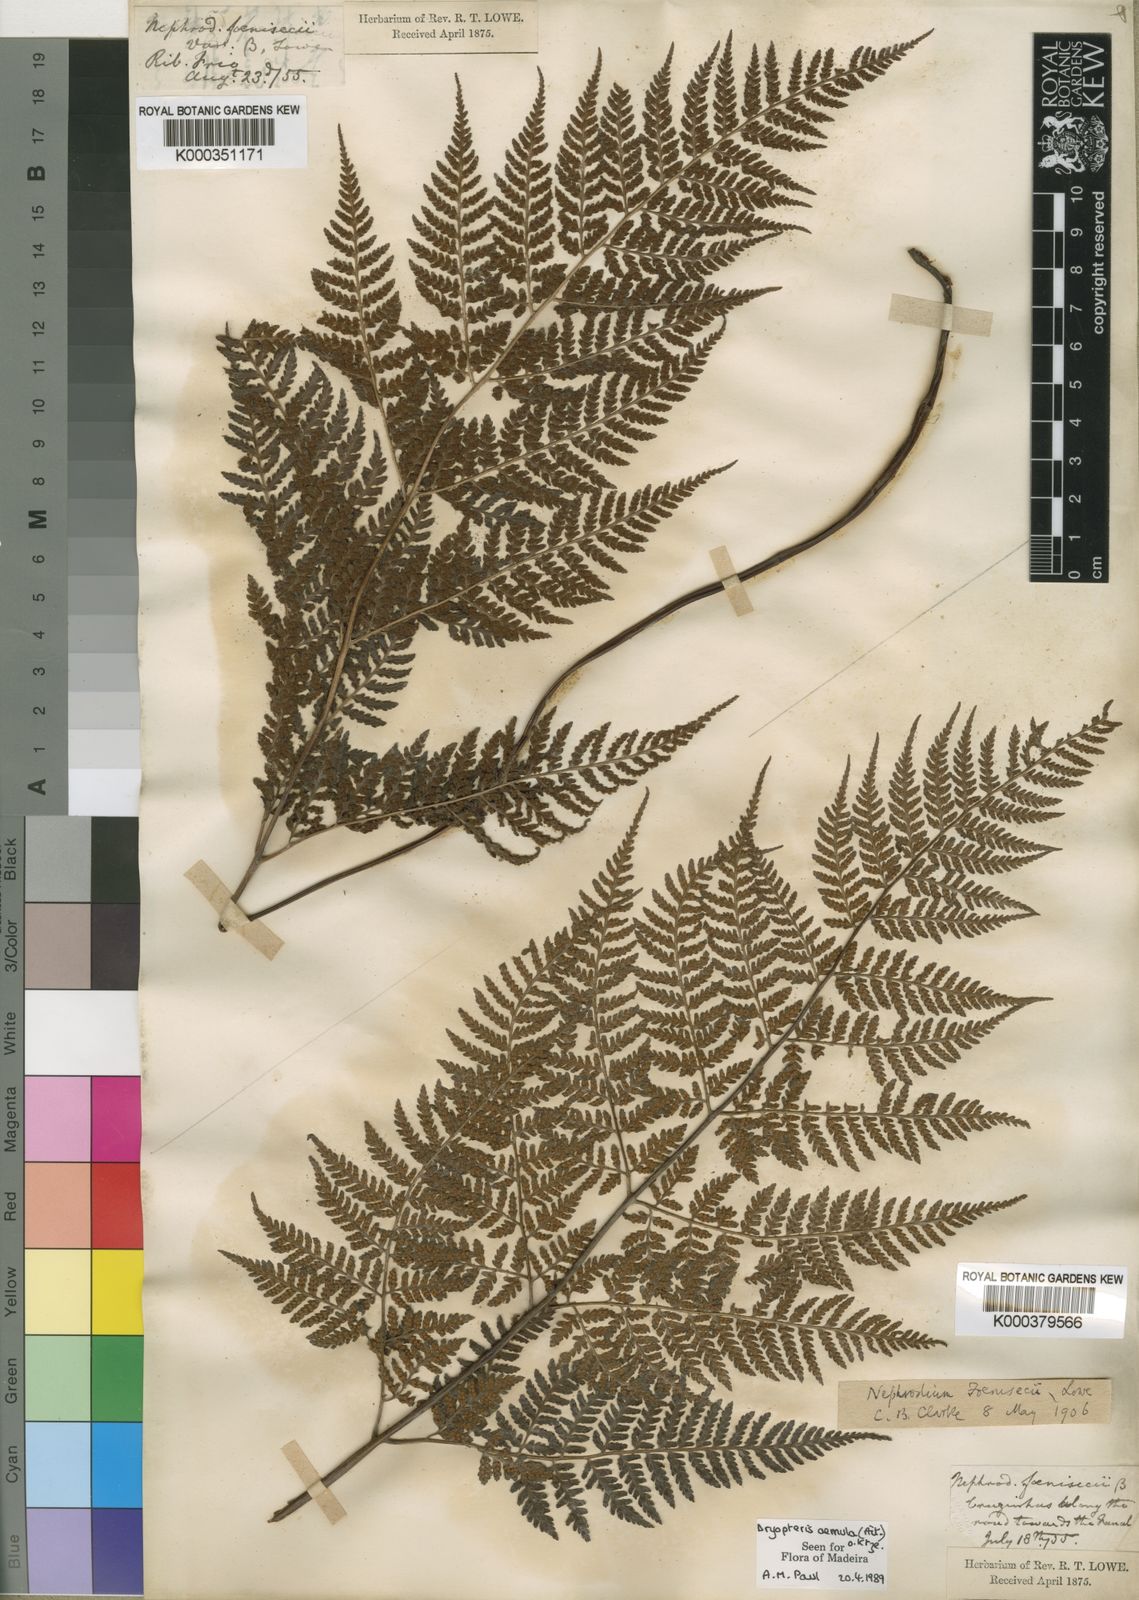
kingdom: Plantae
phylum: Tracheophyta
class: Polypodiopsida
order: Polypodiales
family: Dryopteridaceae
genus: Dryopteris
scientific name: Dryopteris aemula
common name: Hay-scented buckler-fern
